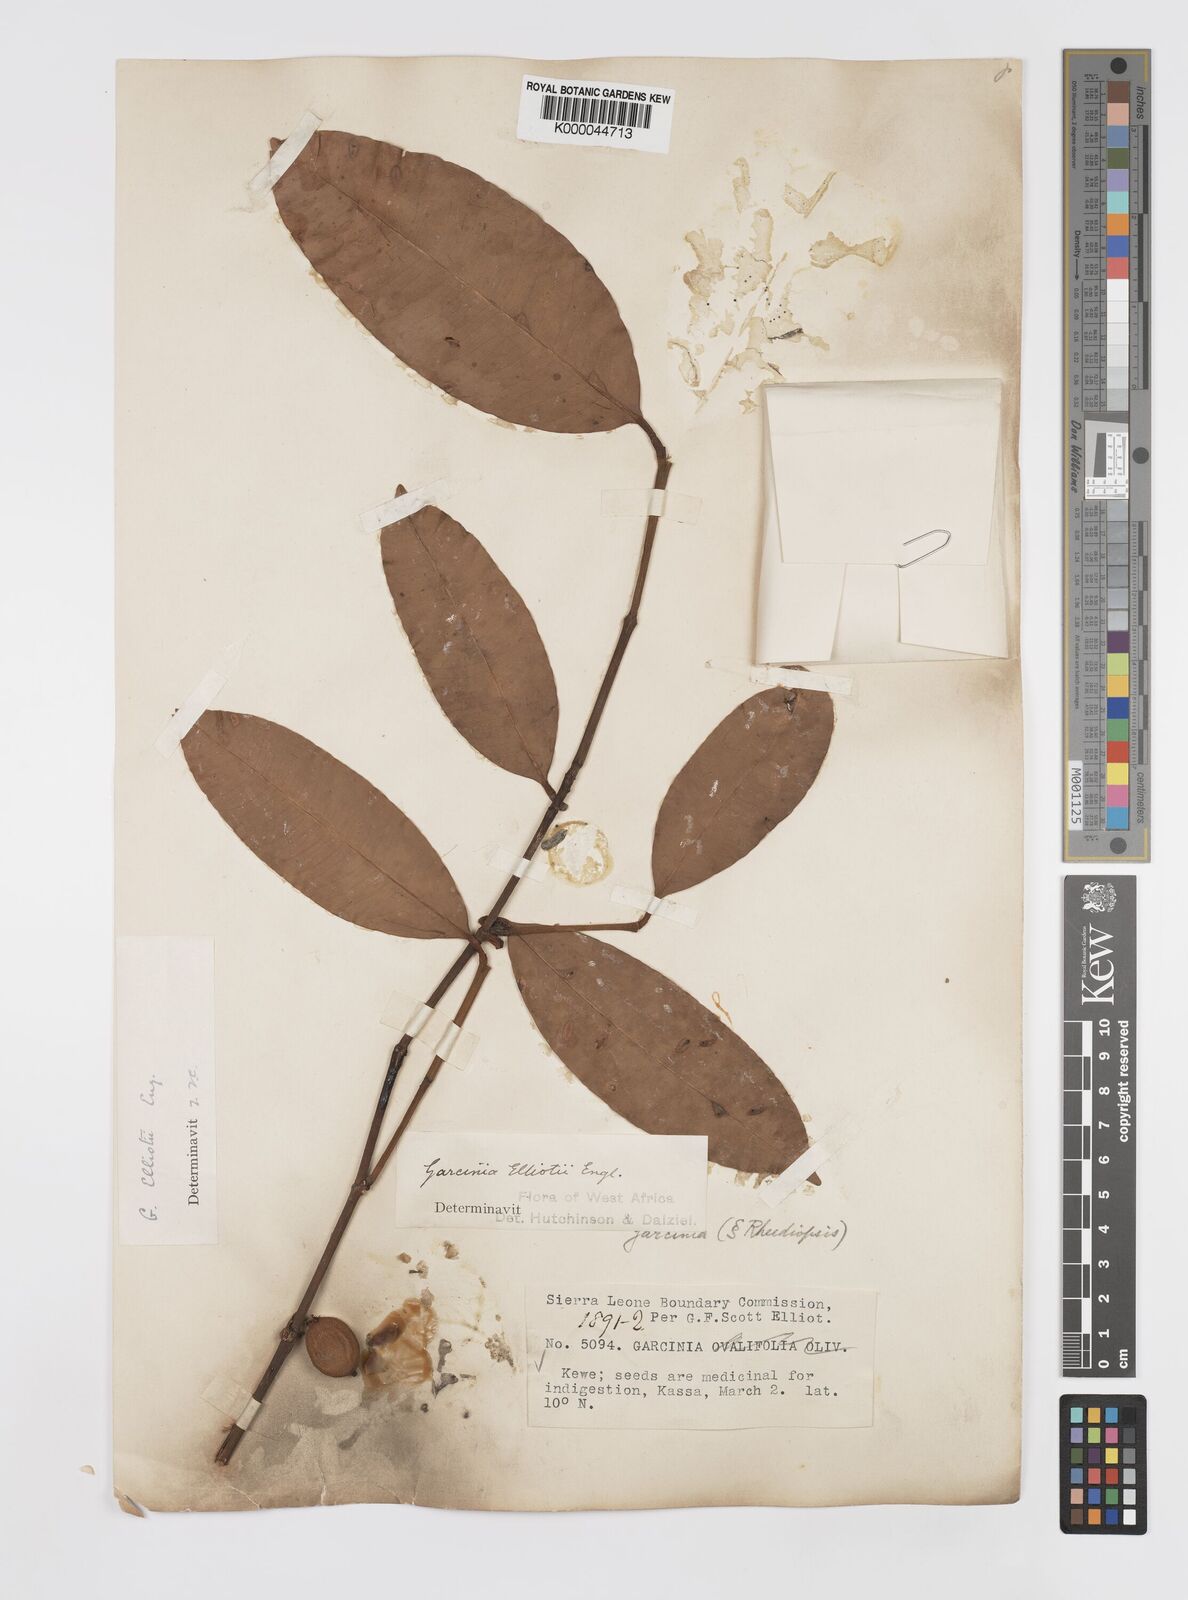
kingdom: Plantae
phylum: Tracheophyta
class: Magnoliopsida
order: Malpighiales
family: Clusiaceae
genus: Garcinia
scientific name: Garcinia elliotii
